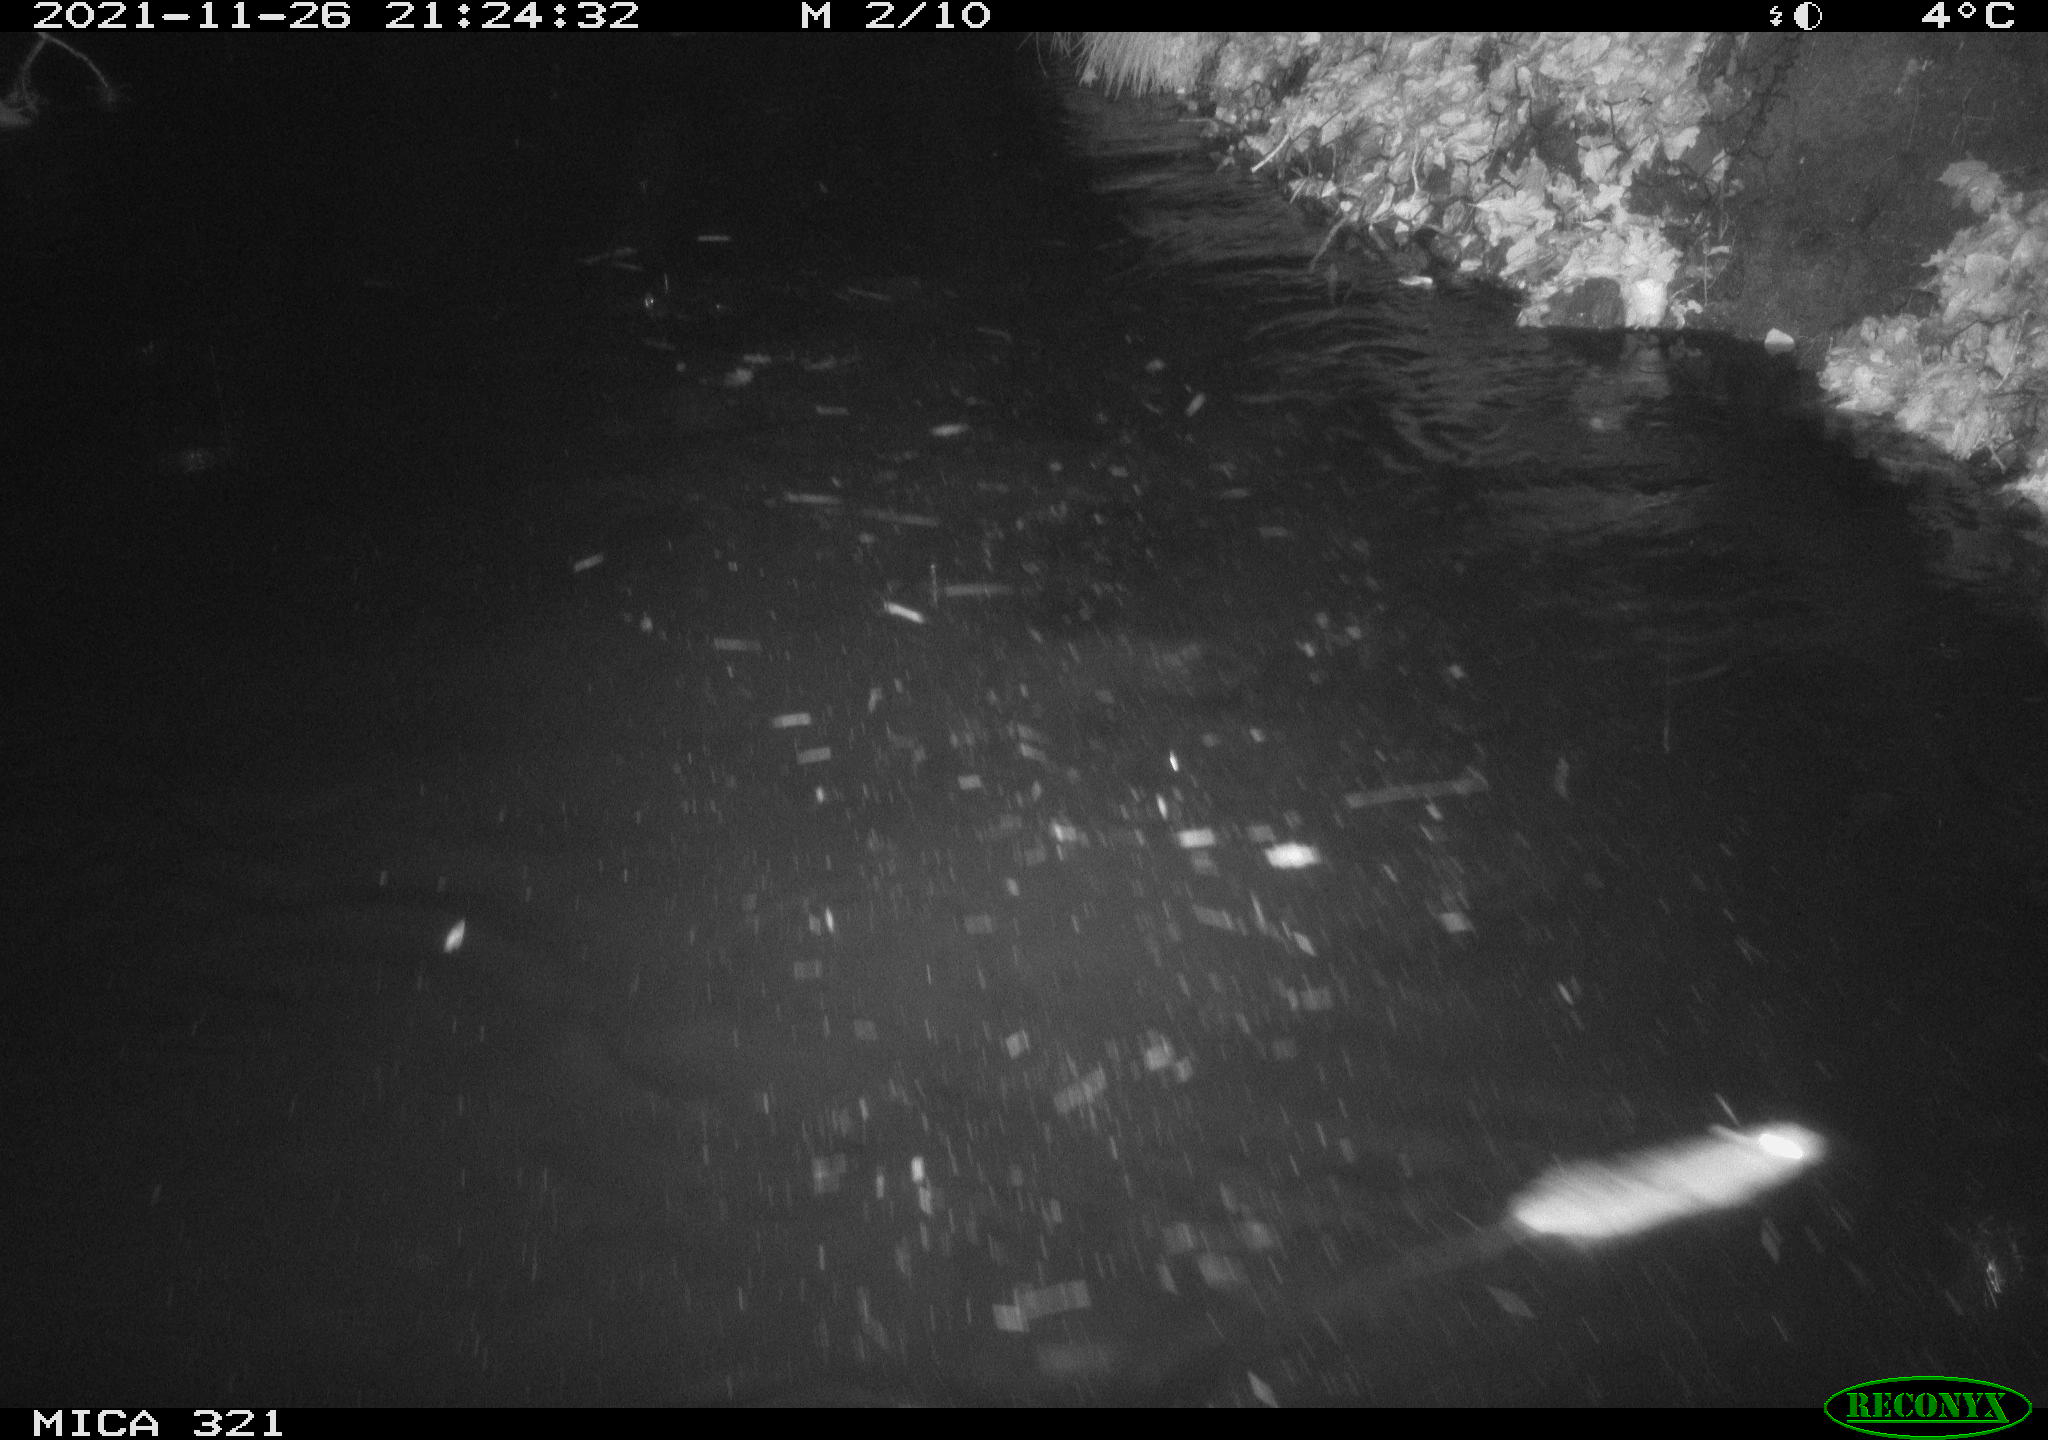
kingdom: Animalia
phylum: Chordata
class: Mammalia
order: Rodentia
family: Muridae
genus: Rattus
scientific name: Rattus norvegicus
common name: Brown rat
